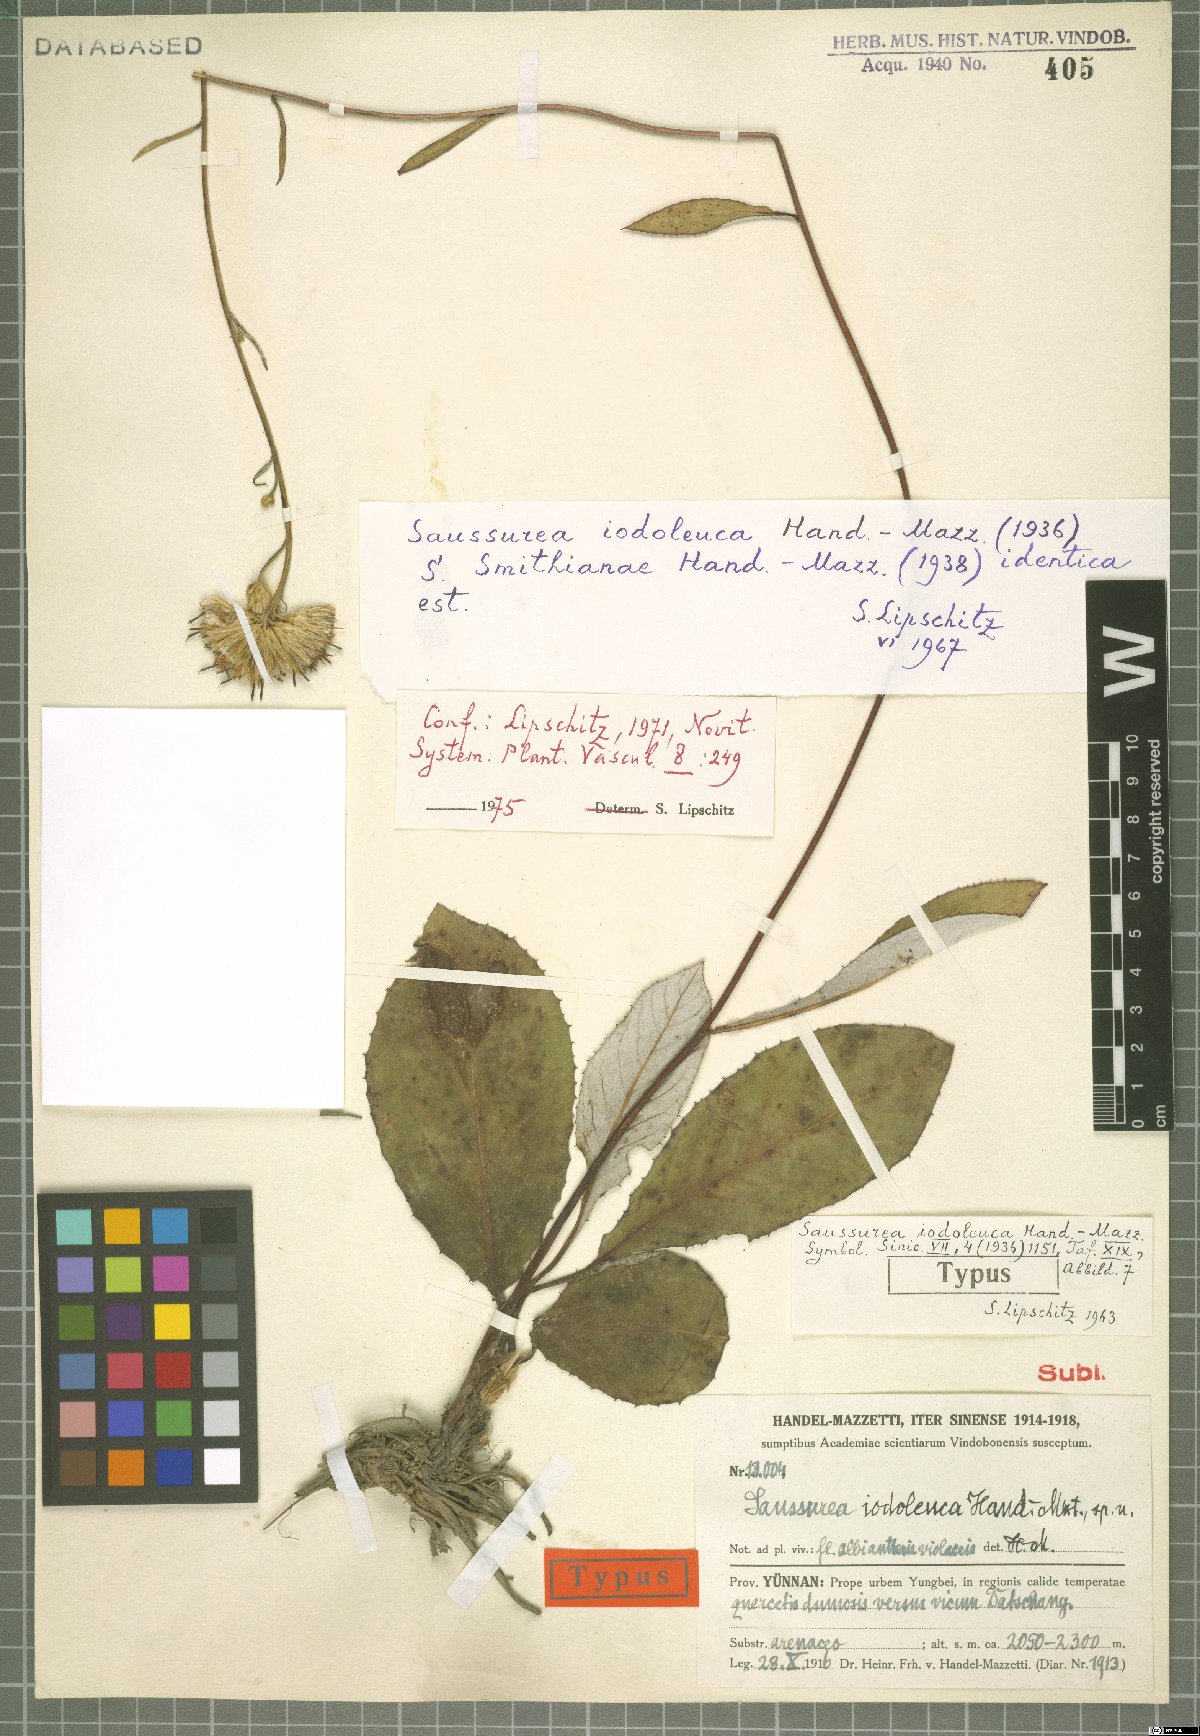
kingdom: Plantae
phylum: Tracheophyta
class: Magnoliopsida
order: Asterales
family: Asteraceae
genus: Saussurea
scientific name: Saussurea iodoleuca
